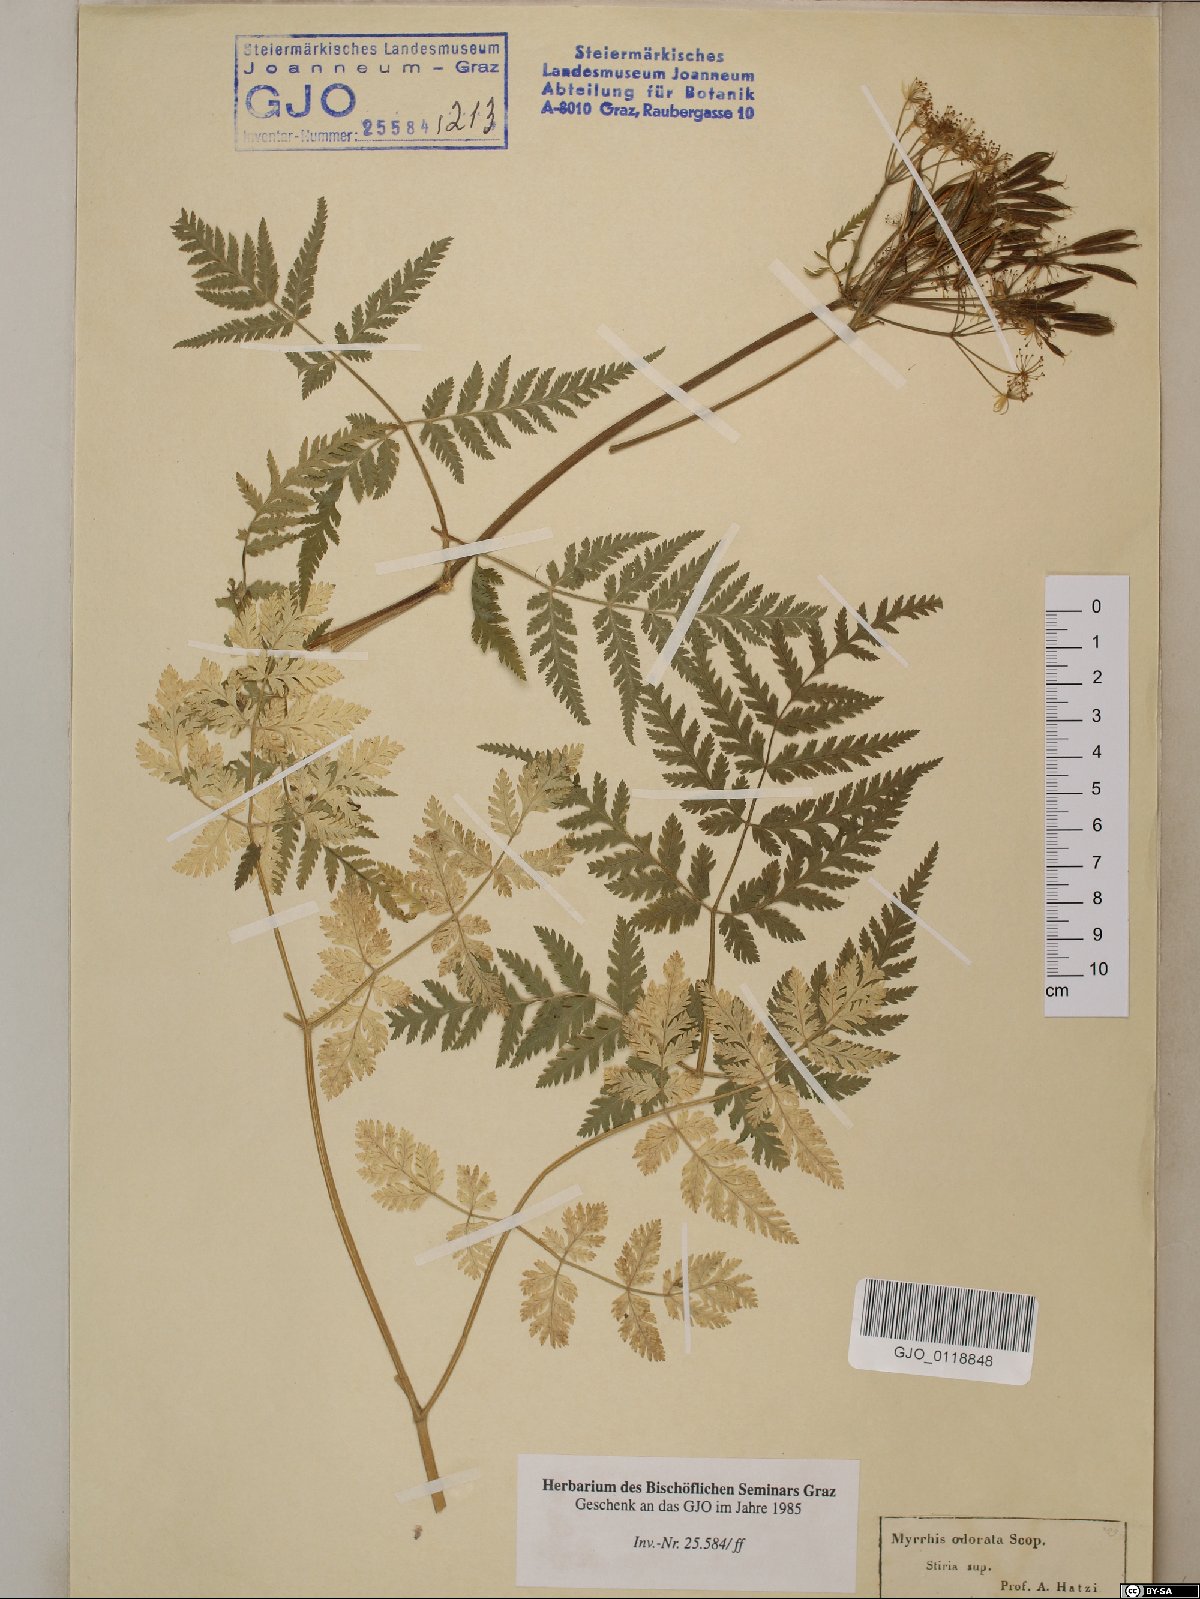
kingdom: Plantae
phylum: Tracheophyta
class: Magnoliopsida
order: Apiales
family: Apiaceae
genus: Myrrhis
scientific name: Myrrhis odorata
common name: Sweet cicely
